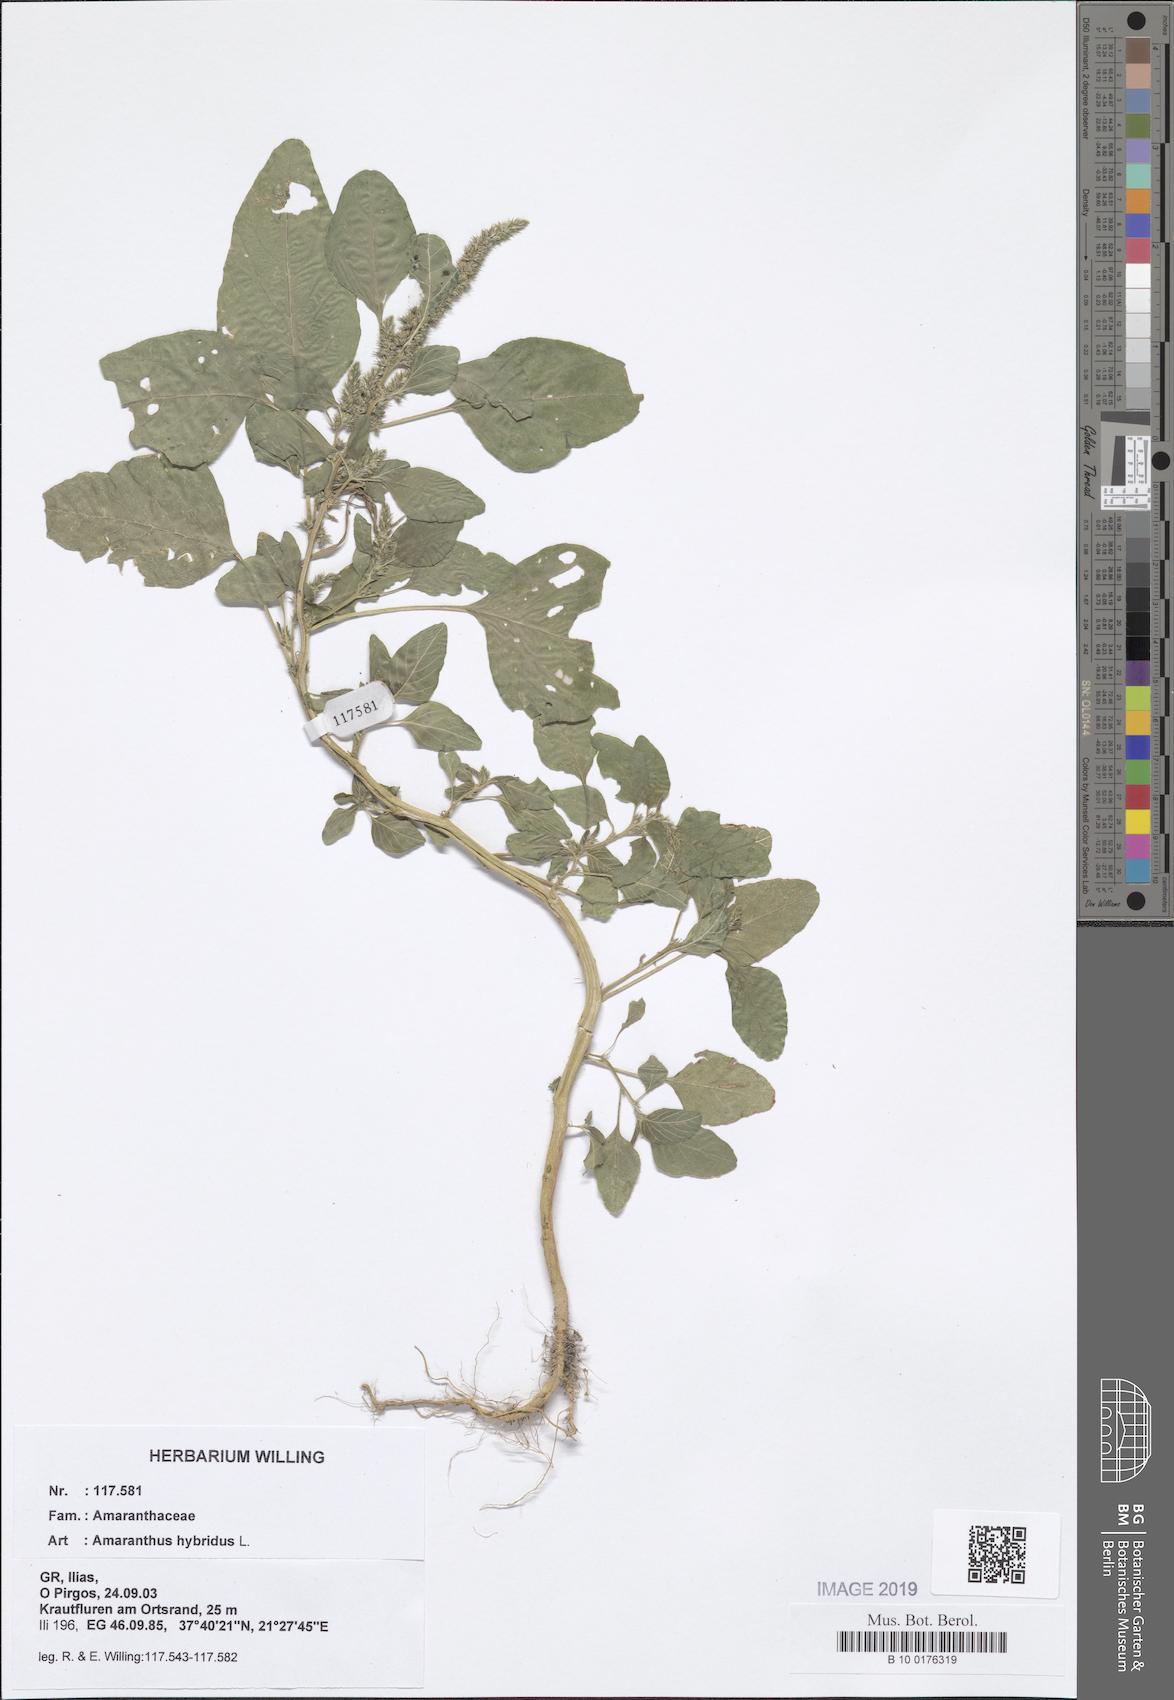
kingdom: Plantae
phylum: Tracheophyta
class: Magnoliopsida
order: Caryophyllales
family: Amaranthaceae
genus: Amaranthus
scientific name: Amaranthus hybridus
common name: Green amaranth
